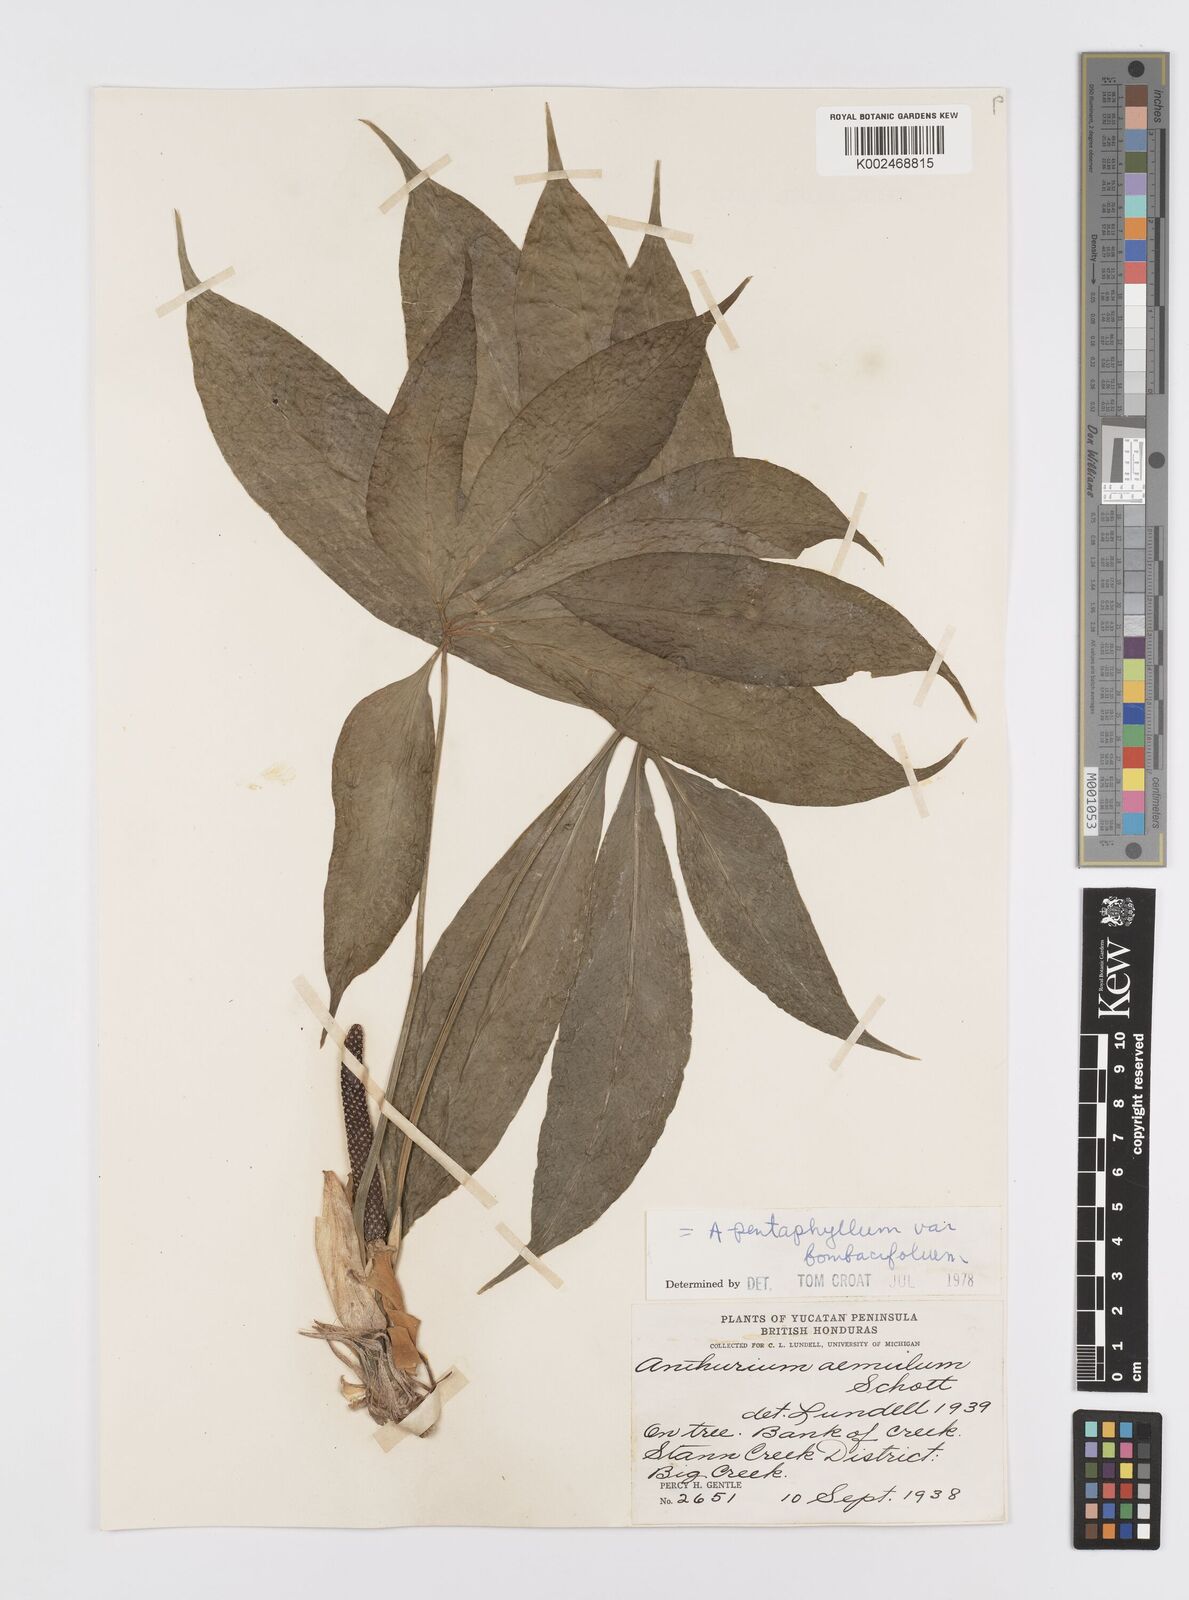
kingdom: Plantae
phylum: Tracheophyta
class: Liliopsida
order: Alismatales
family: Araceae
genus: Anthurium
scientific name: Anthurium pentaphyllum
